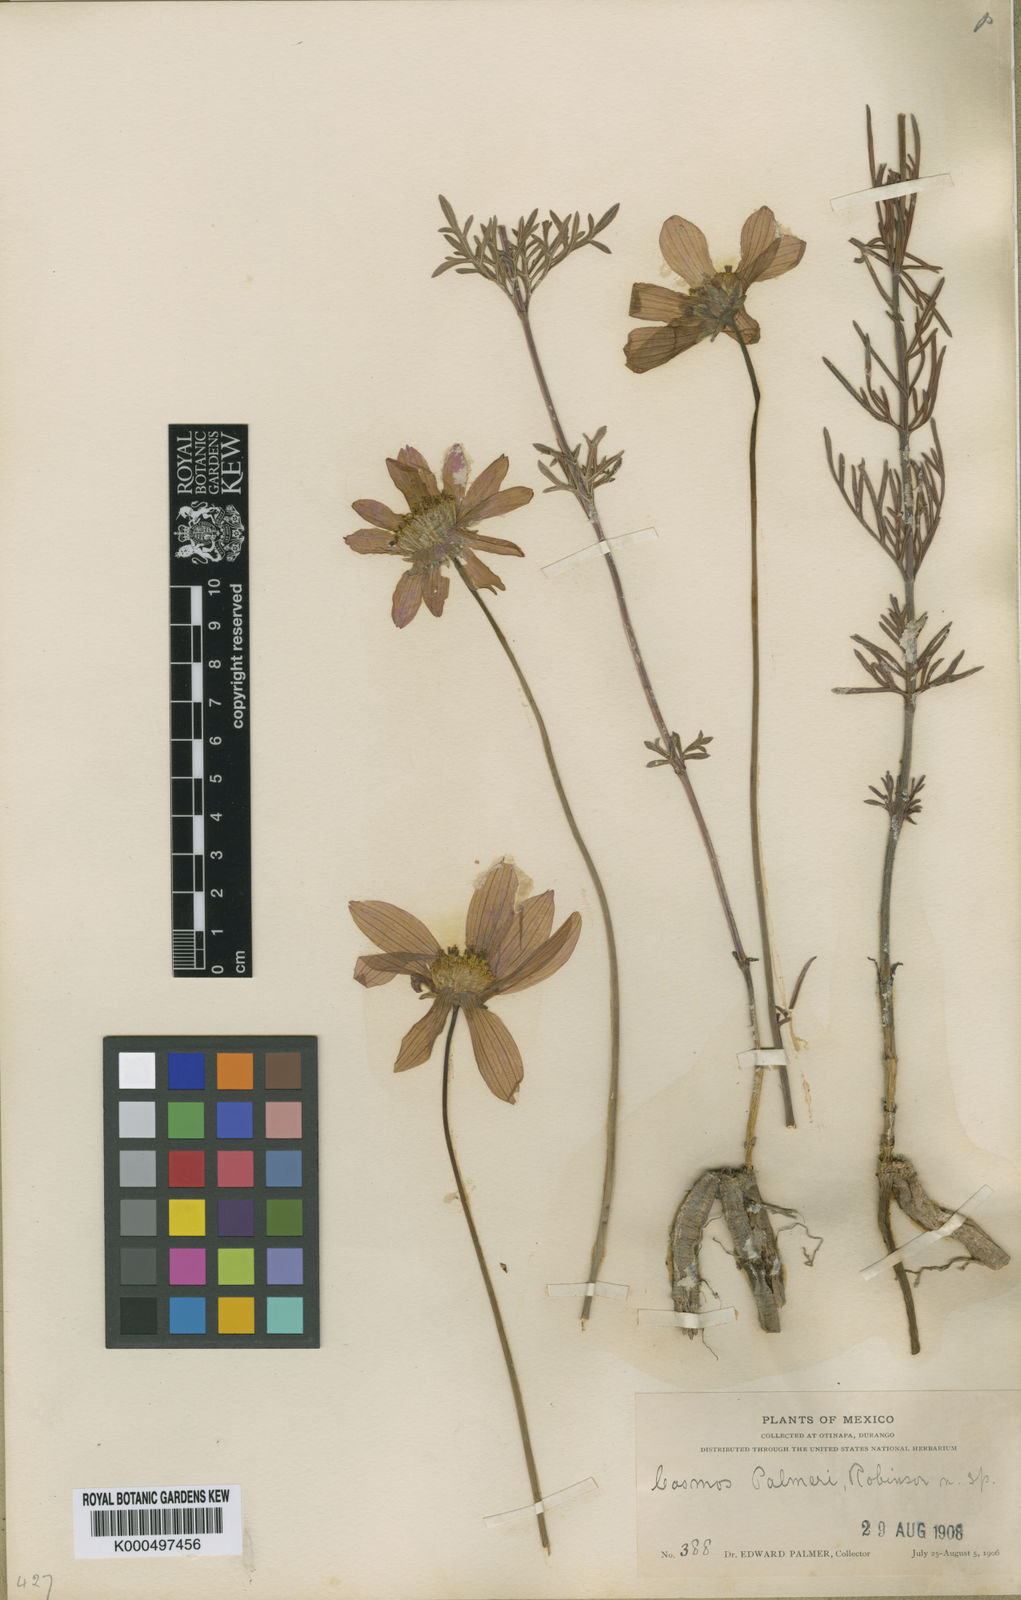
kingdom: Plantae
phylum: Tracheophyta
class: Magnoliopsida
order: Asterales
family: Asteraceae
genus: Cosmos
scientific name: Cosmos palmeri
